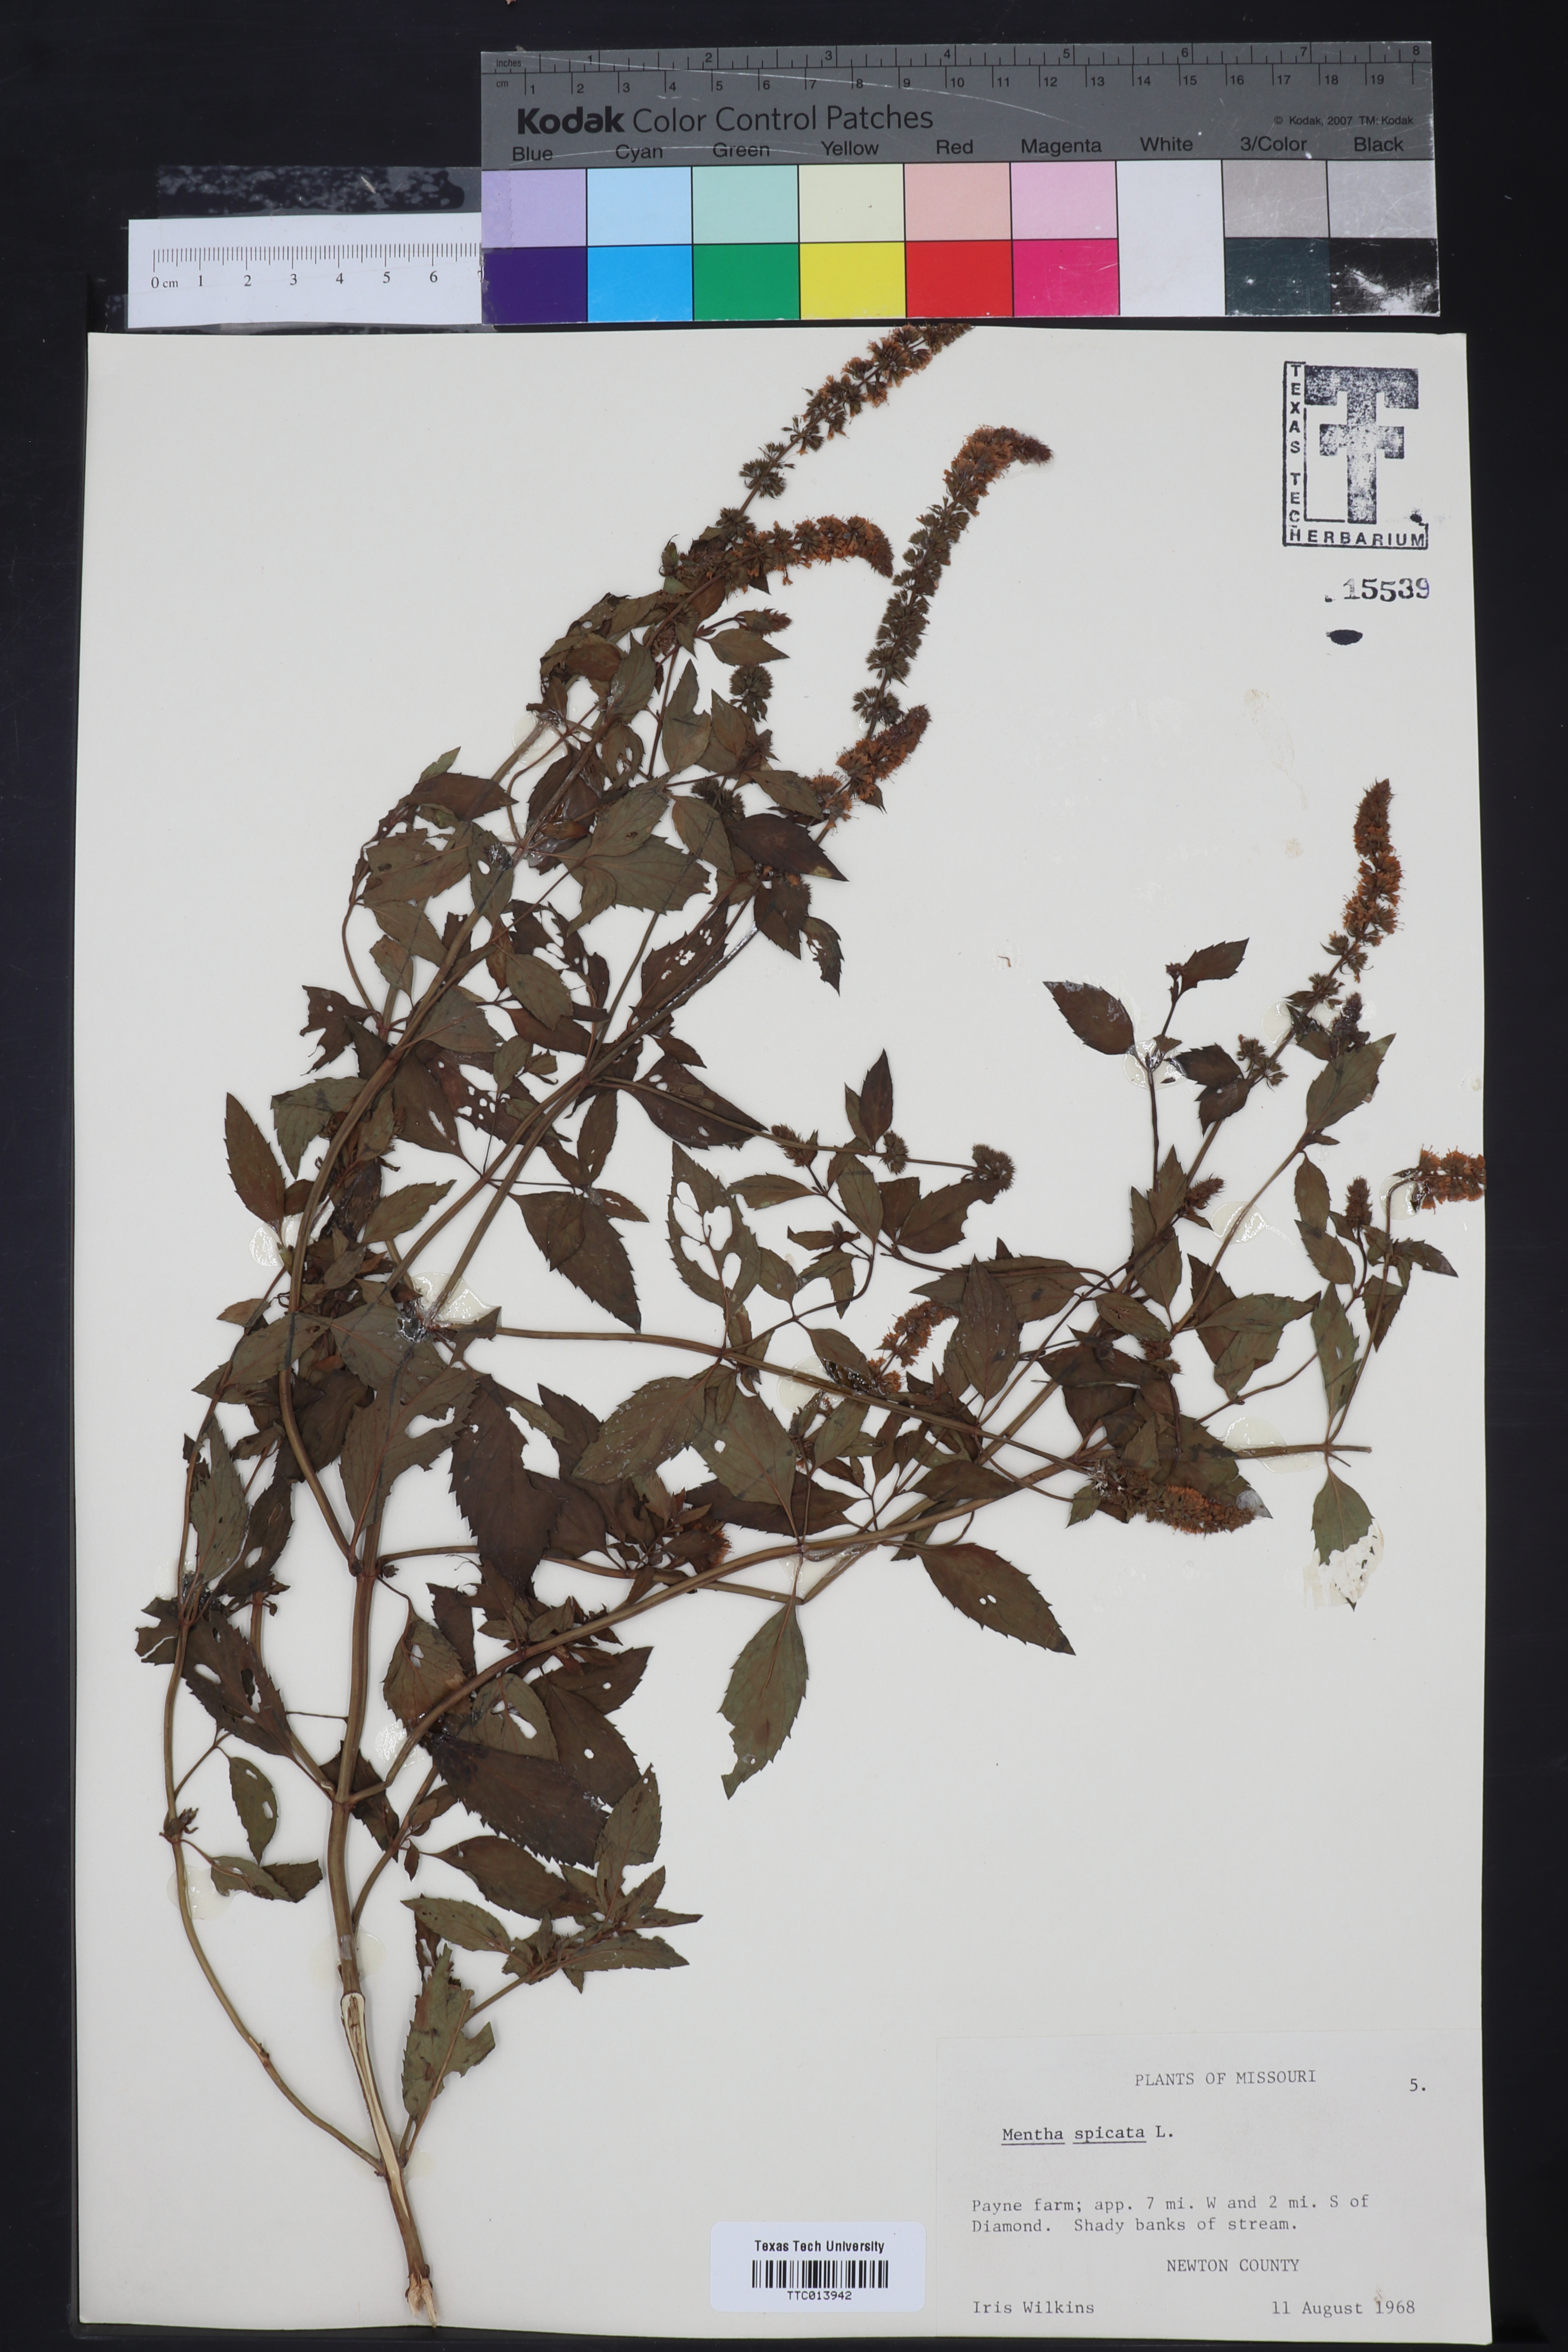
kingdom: Plantae
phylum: Tracheophyta
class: Magnoliopsida
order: Lamiales
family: Lamiaceae
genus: Mentha
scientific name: Mentha spicata
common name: Spearmint
